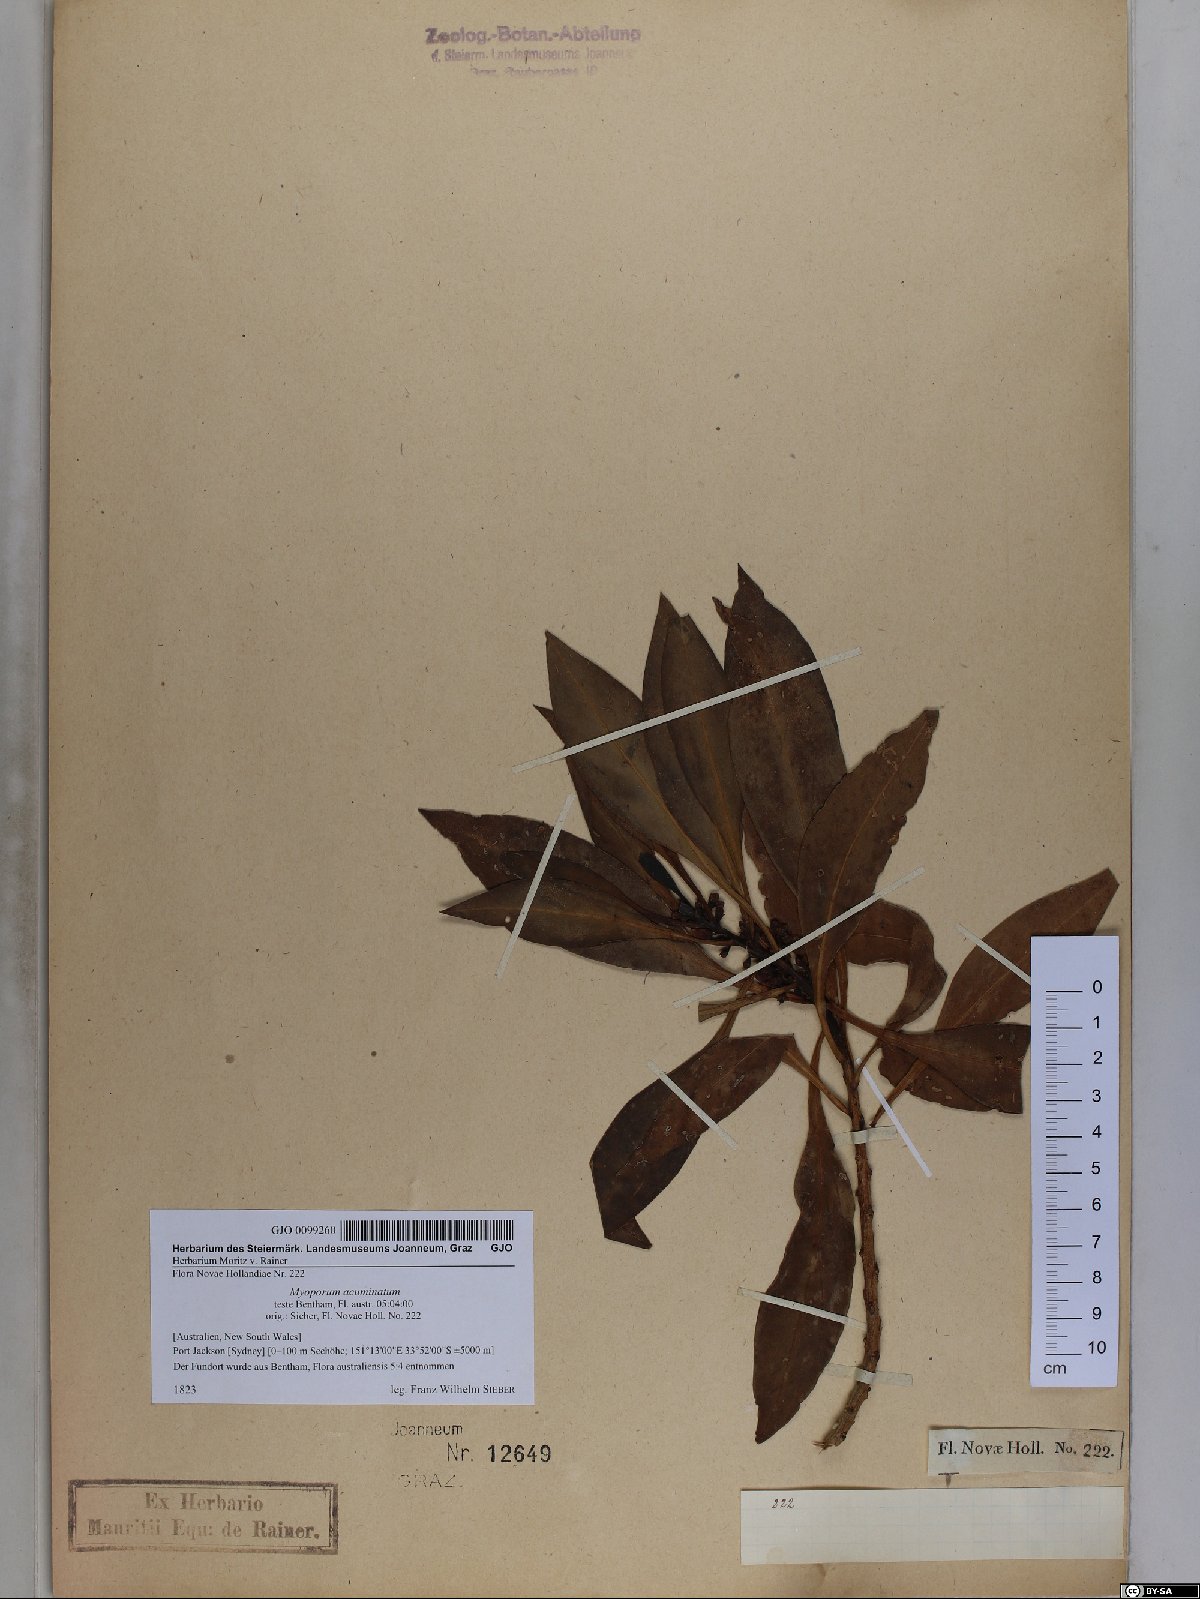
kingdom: Plantae
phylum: Tracheophyta
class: Magnoliopsida
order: Lamiales
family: Scrophulariaceae
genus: Myoporum
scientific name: Myoporum acuminatum
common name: Pointed boobialla
